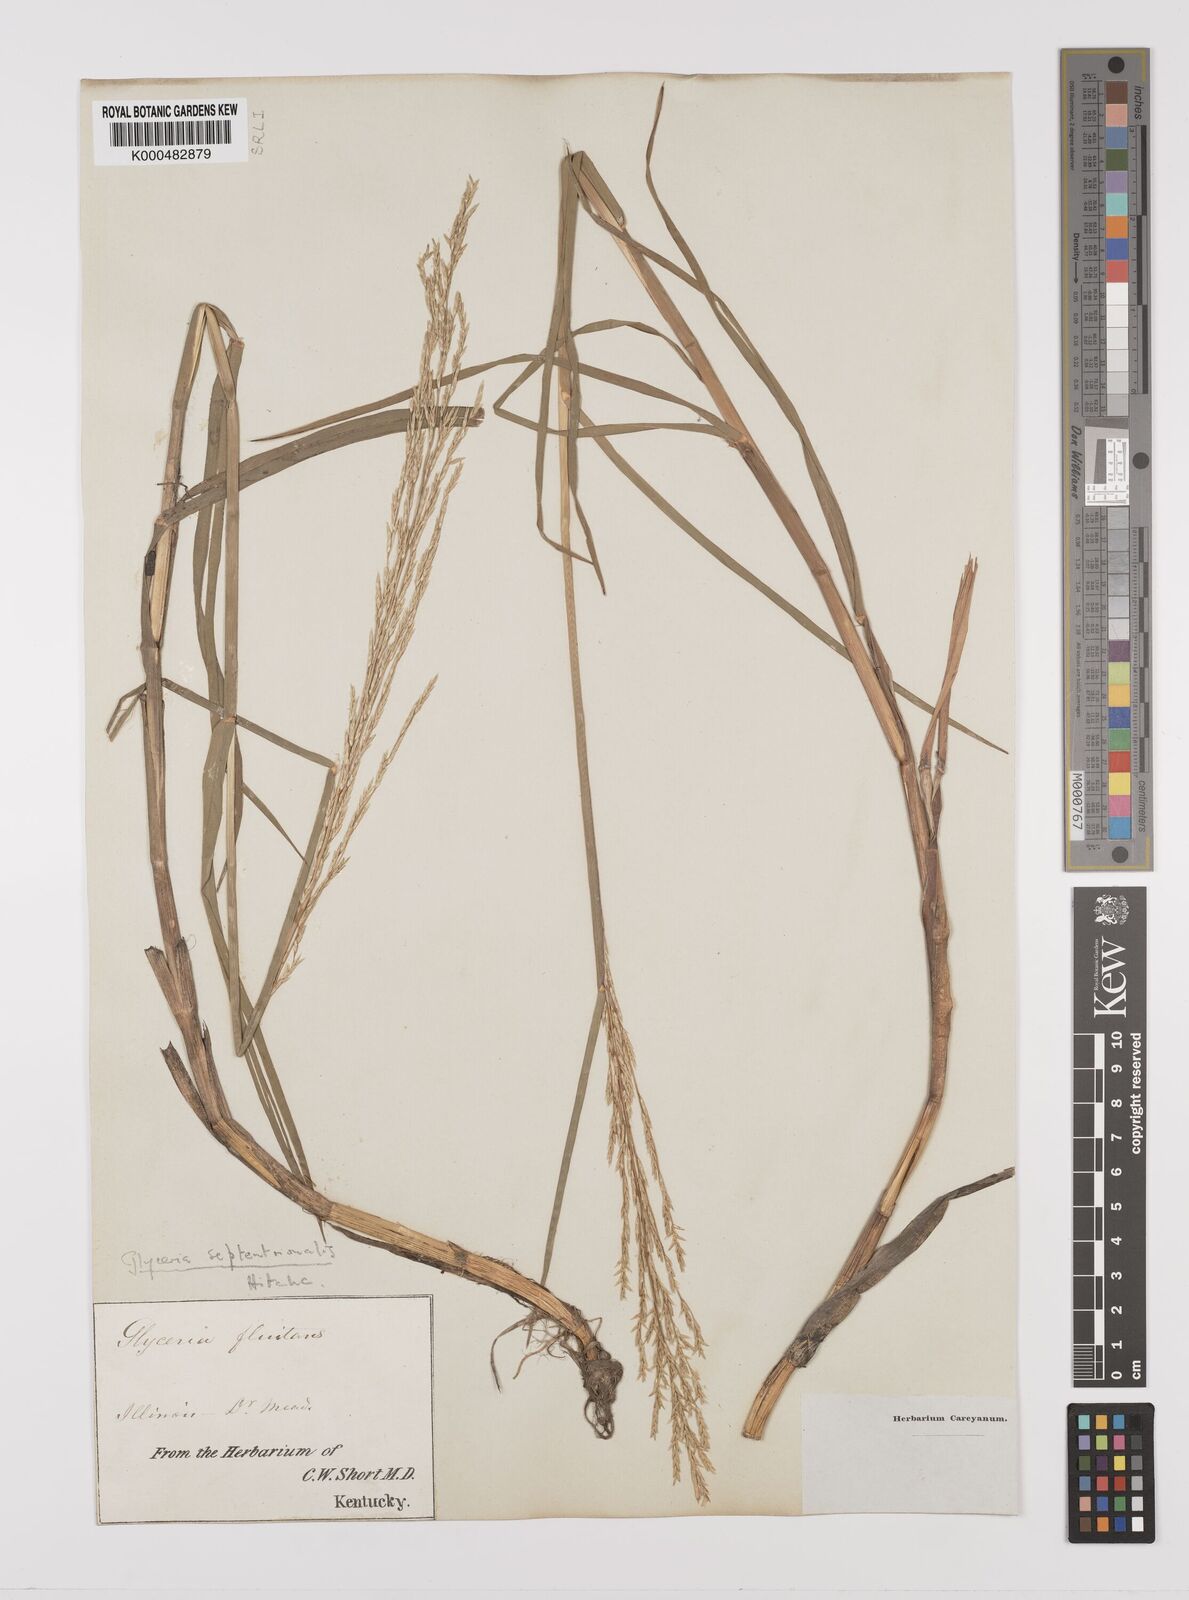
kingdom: Plantae
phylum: Tracheophyta
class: Liliopsida
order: Poales
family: Poaceae
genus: Glyceria
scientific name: Glyceria septentrionalis
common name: Eastern mannagrass
